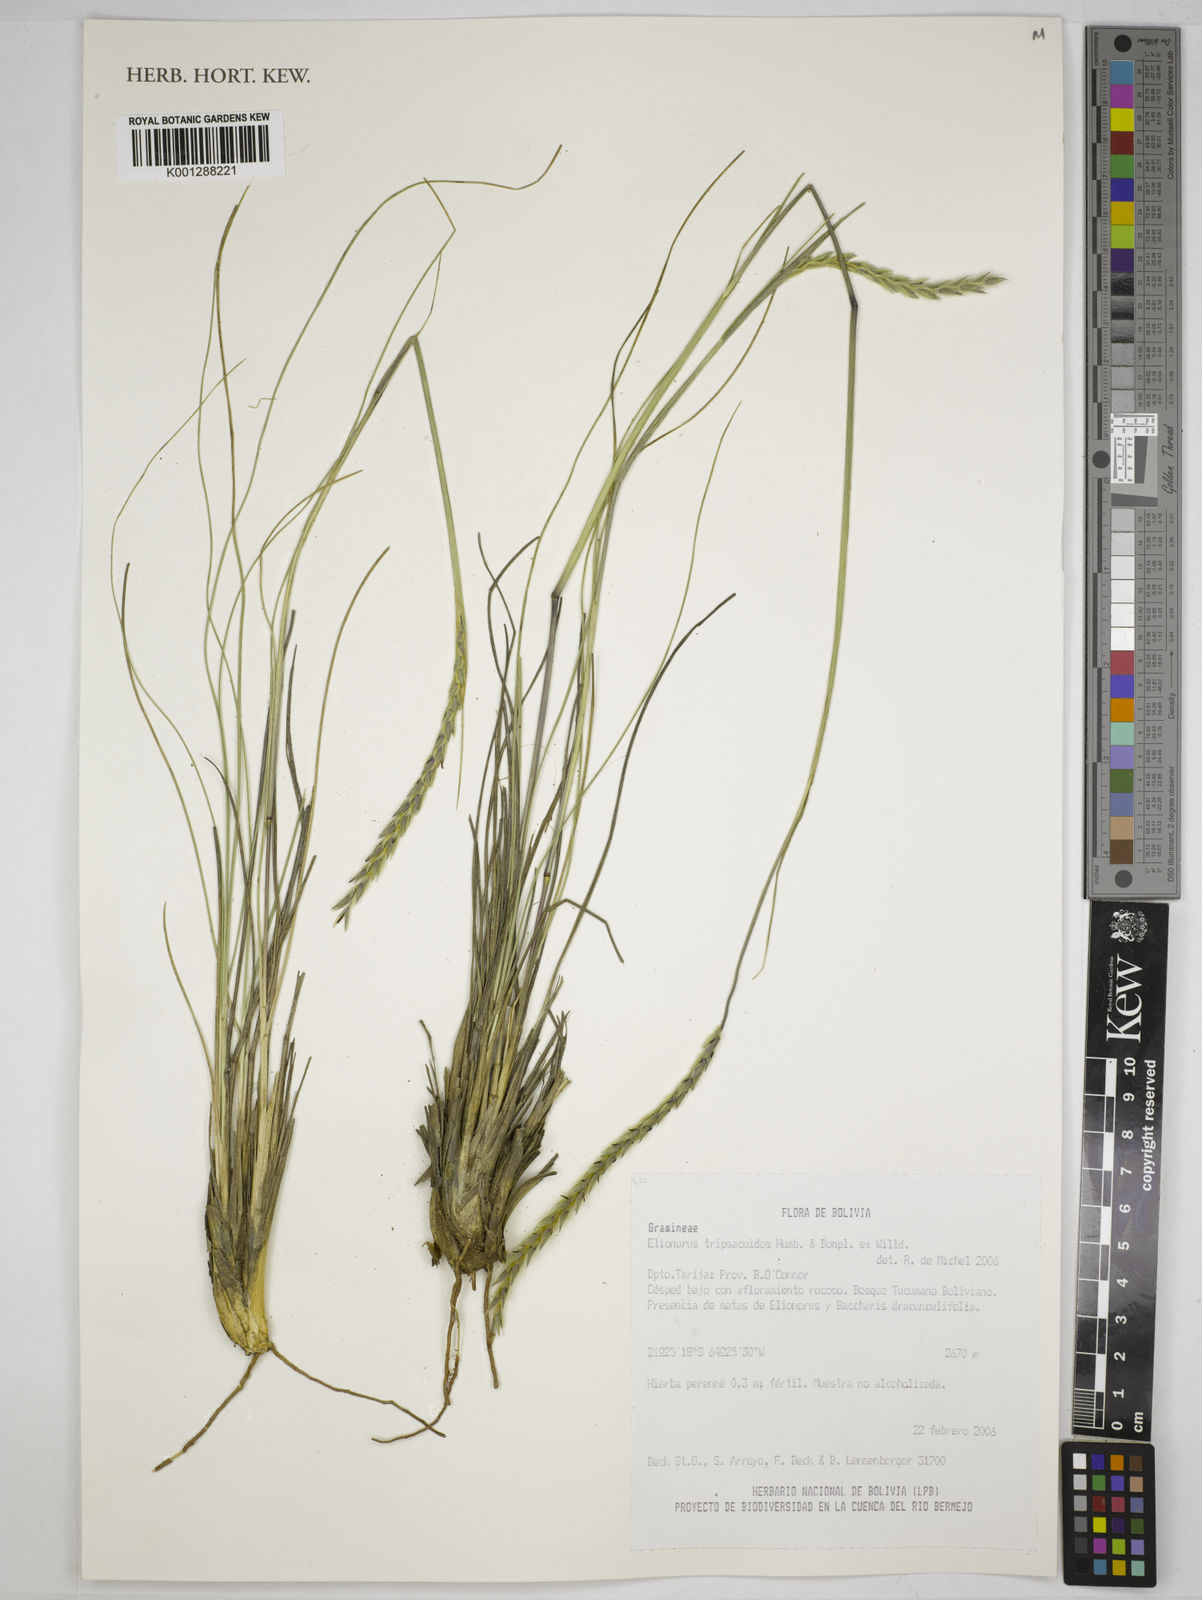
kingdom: Plantae
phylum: Tracheophyta
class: Liliopsida
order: Poales
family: Poaceae
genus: Elionurus
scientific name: Elionurus muticus
